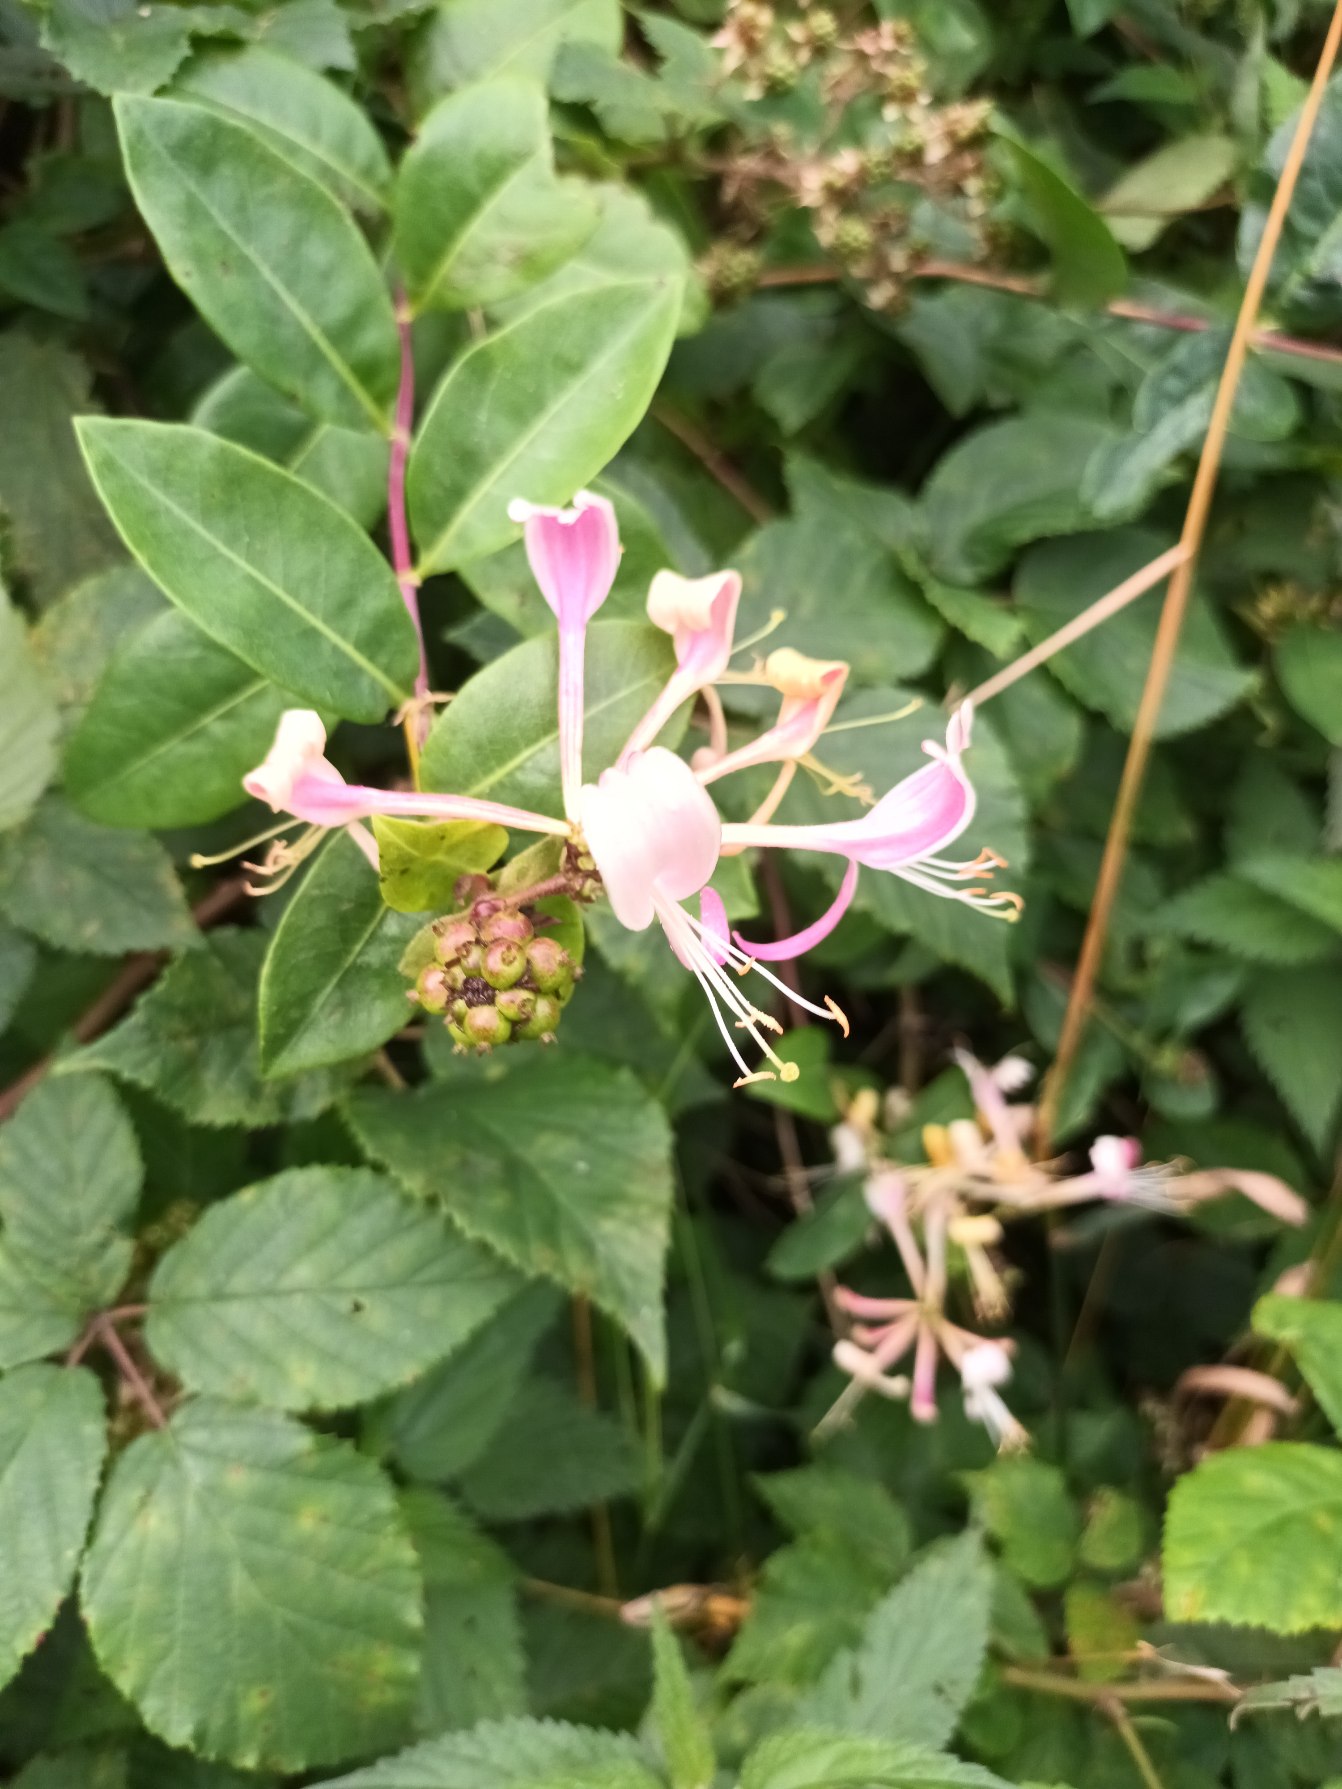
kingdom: Plantae
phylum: Tracheophyta
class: Magnoliopsida
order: Dipsacales
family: Caprifoliaceae
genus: Lonicera
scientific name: Lonicera periclymenum
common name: Almindelig gedeblad
